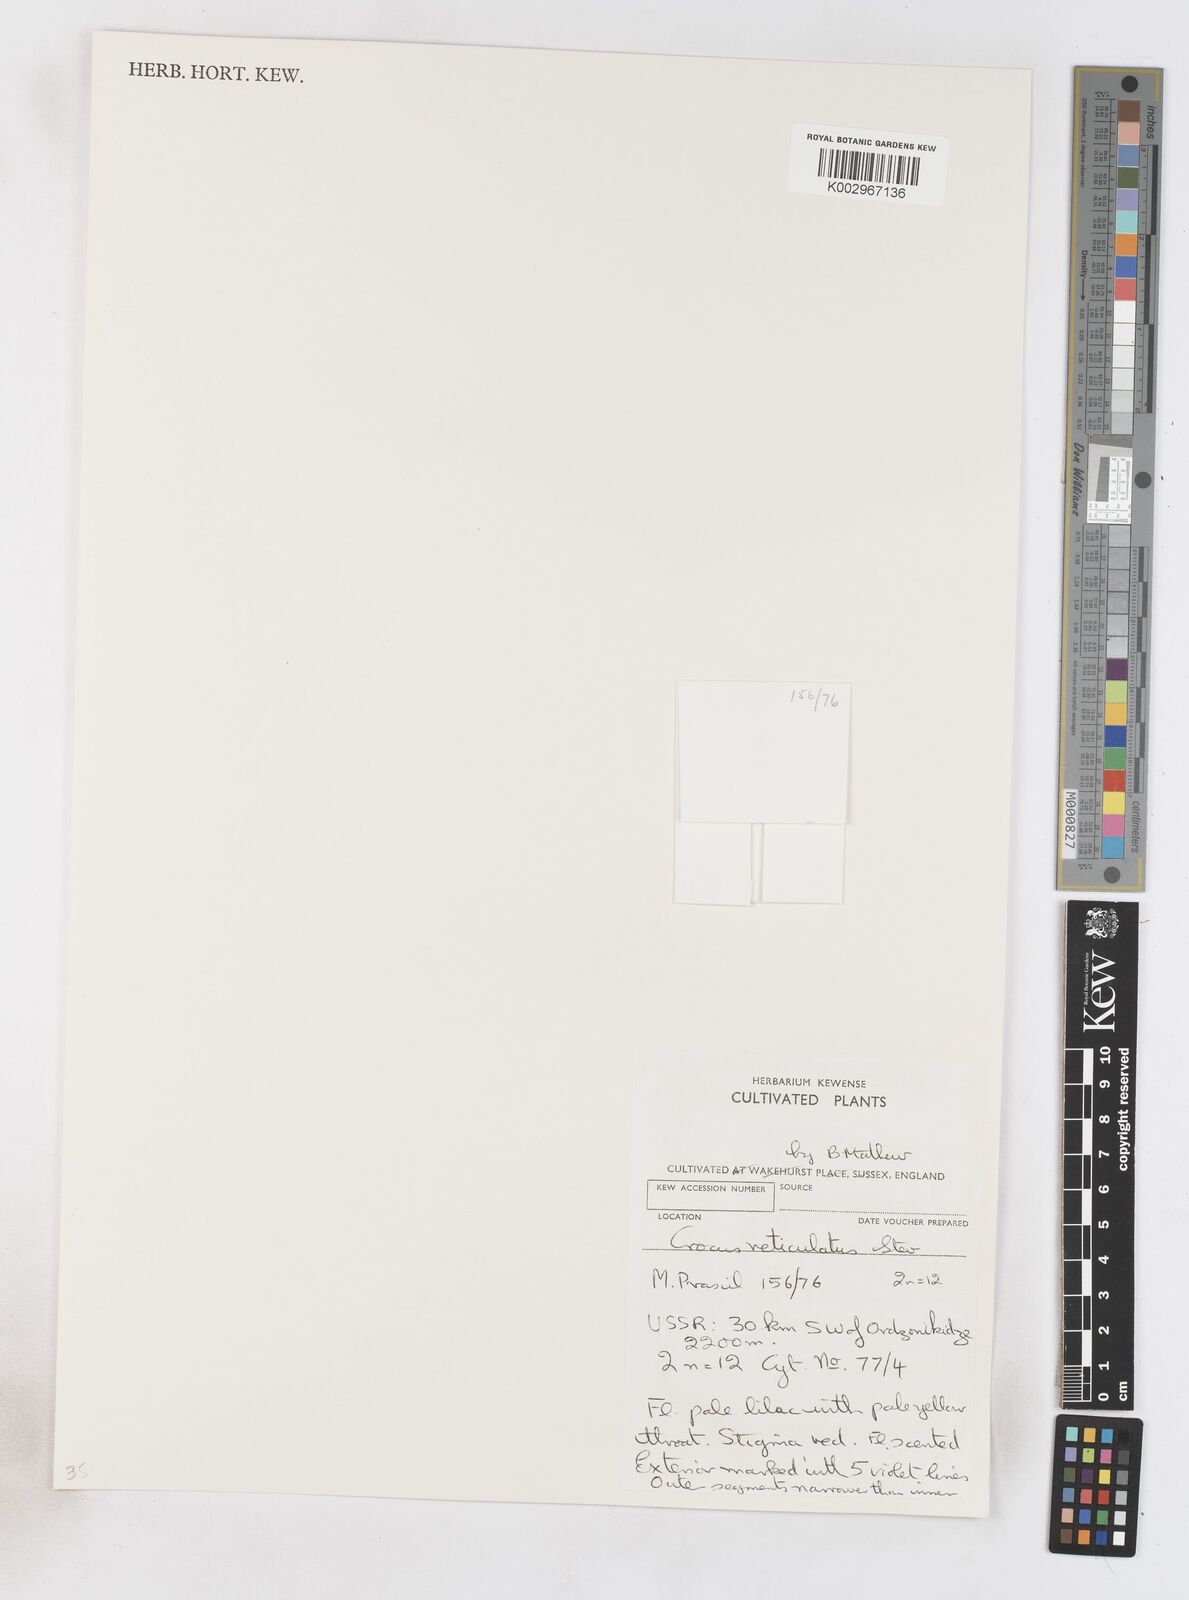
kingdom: Plantae
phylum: Tracheophyta
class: Liliopsida
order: Asparagales
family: Iridaceae
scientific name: Iridaceae
